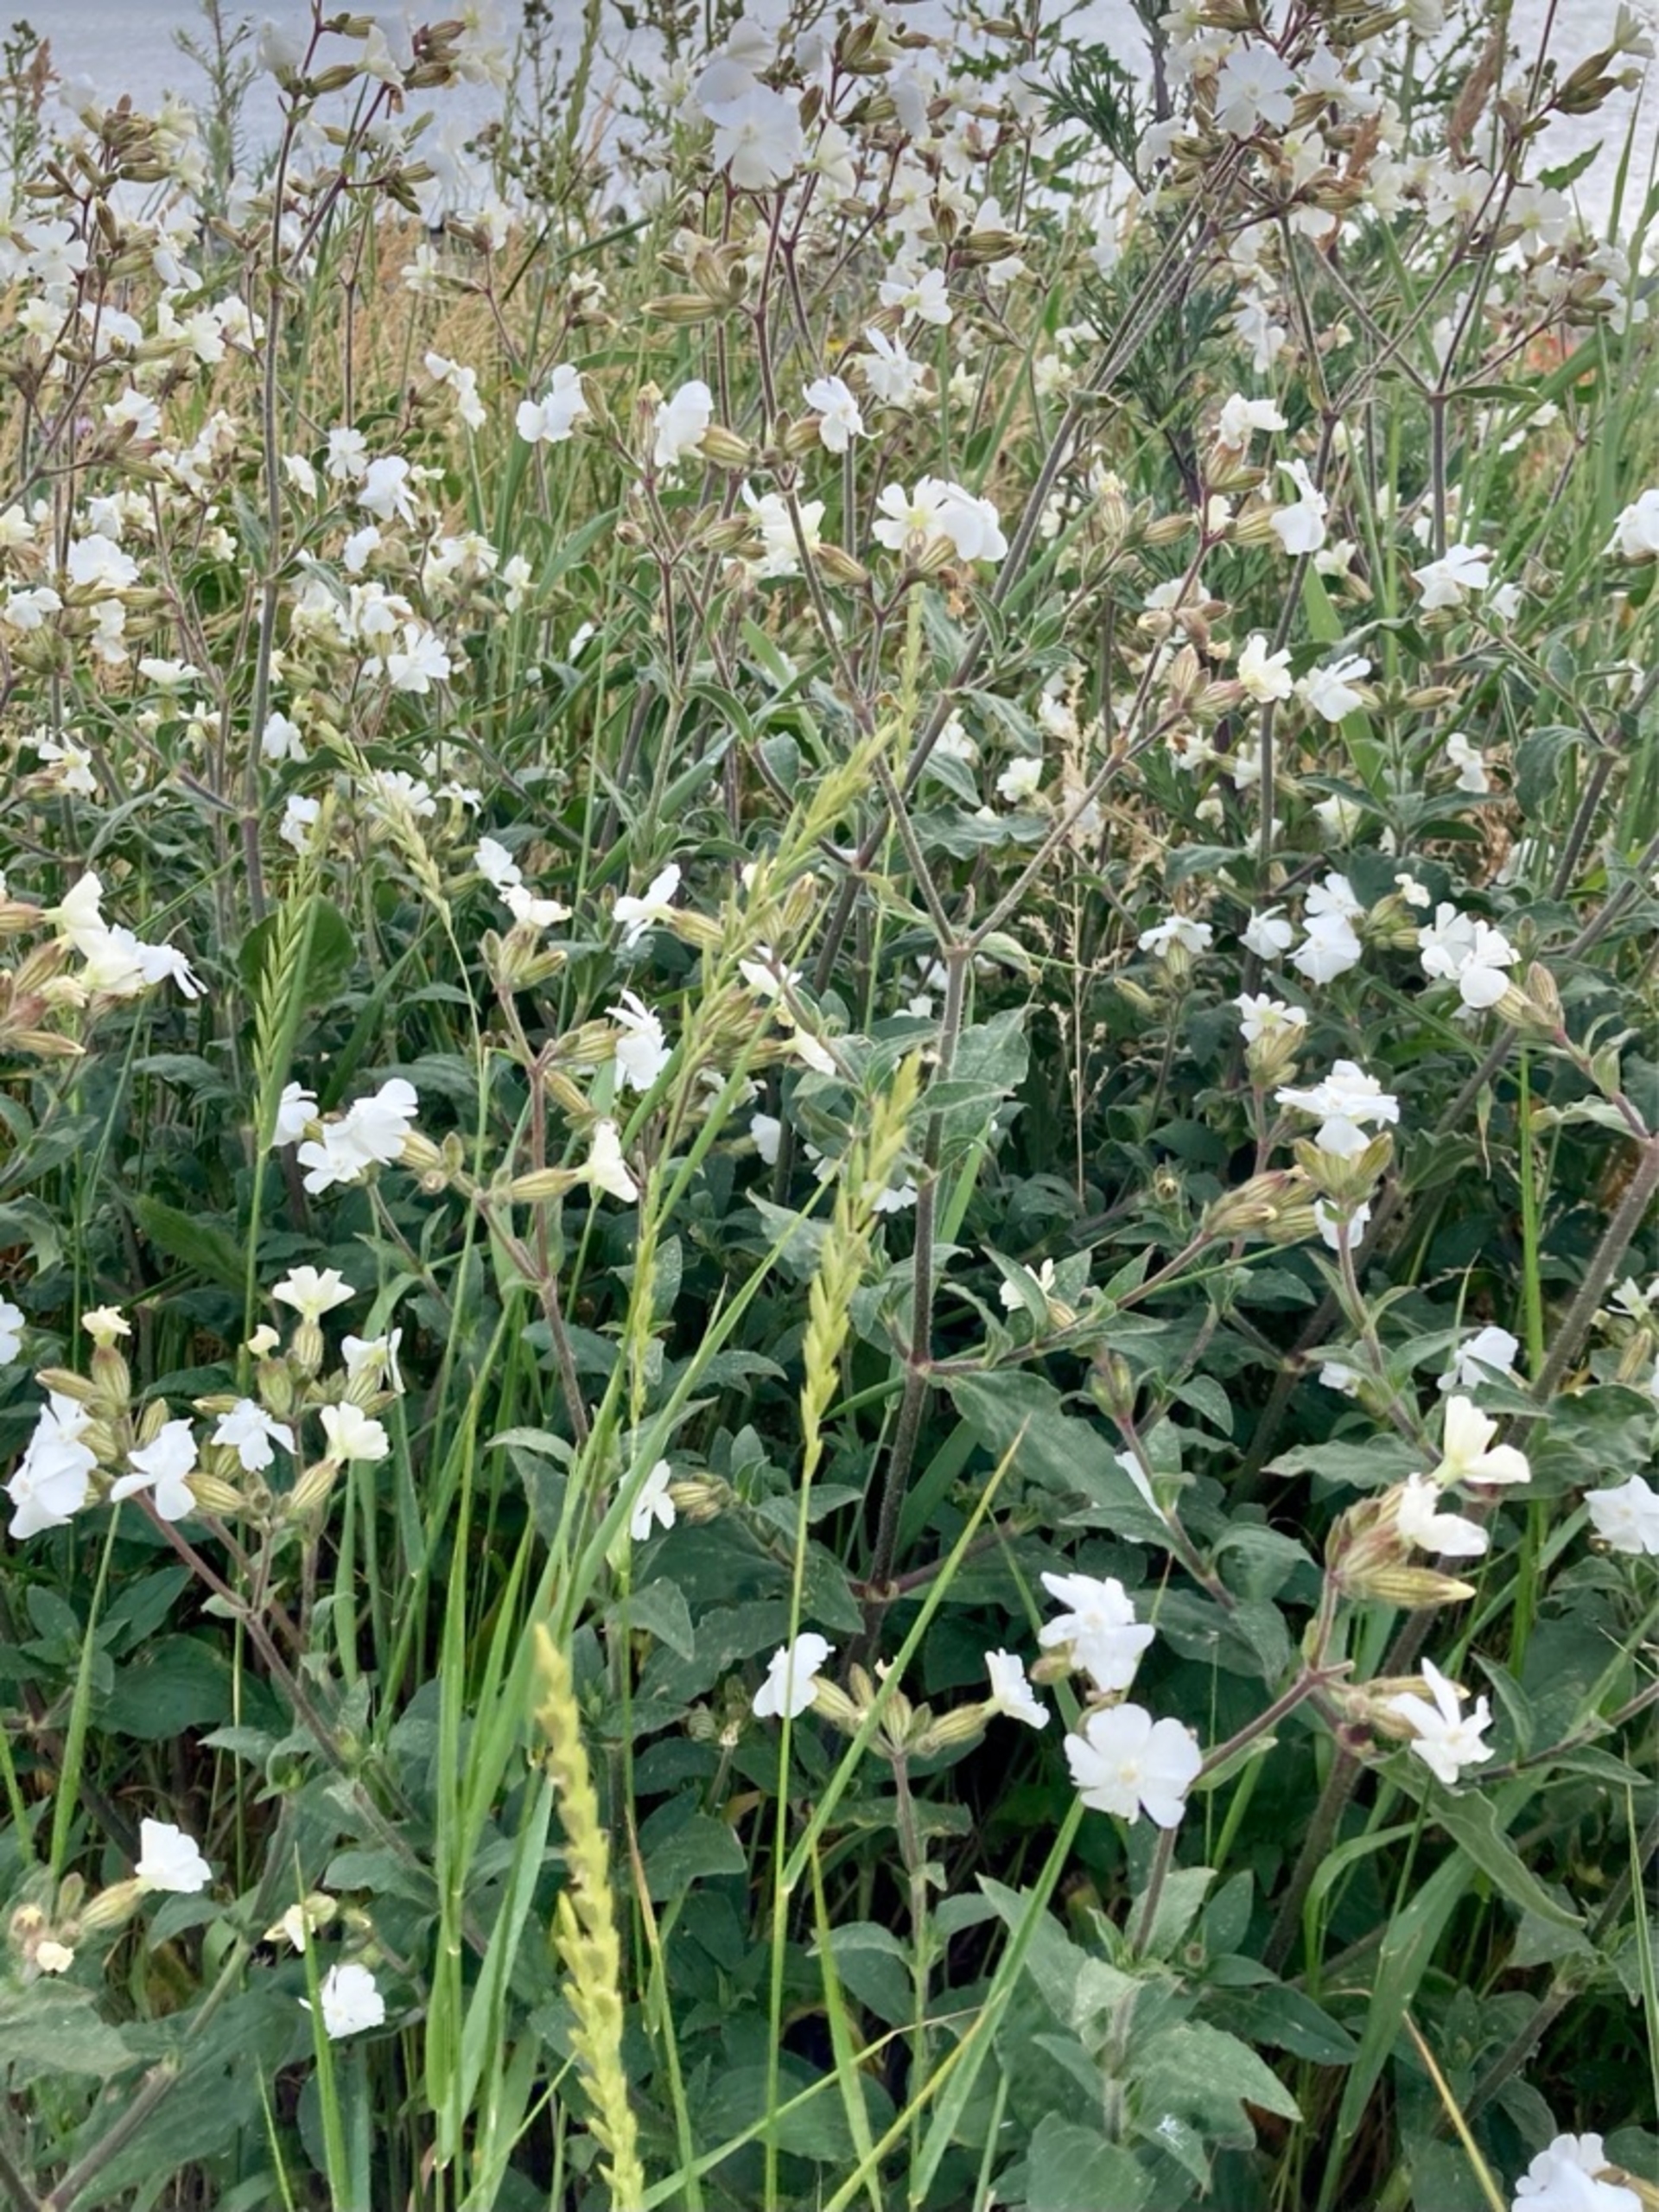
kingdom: Plantae
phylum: Tracheophyta
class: Magnoliopsida
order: Caryophyllales
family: Caryophyllaceae
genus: Silene
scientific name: Silene latifolia
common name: Aftenpragtstjerne
